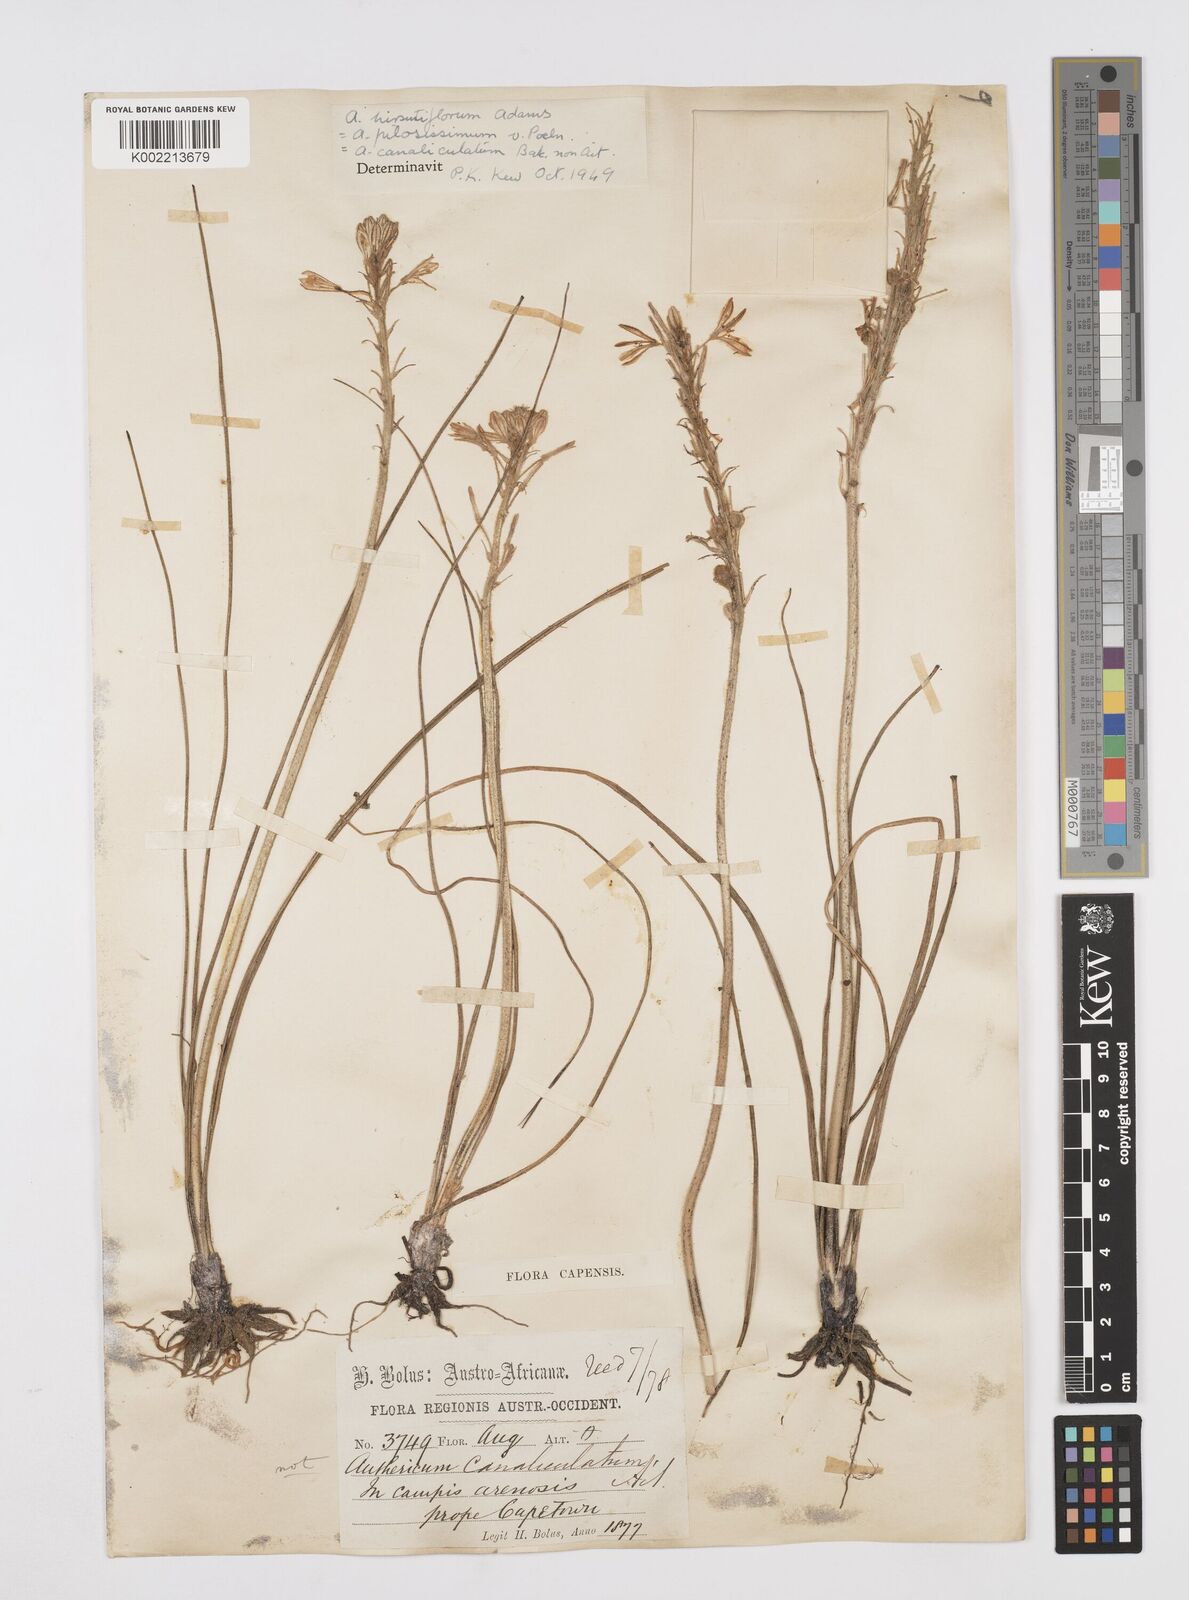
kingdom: Plantae
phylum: Tracheophyta
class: Liliopsida
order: Asparagales
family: Asphodelaceae
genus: Trachyandra
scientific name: Trachyandra hirsutiflora
